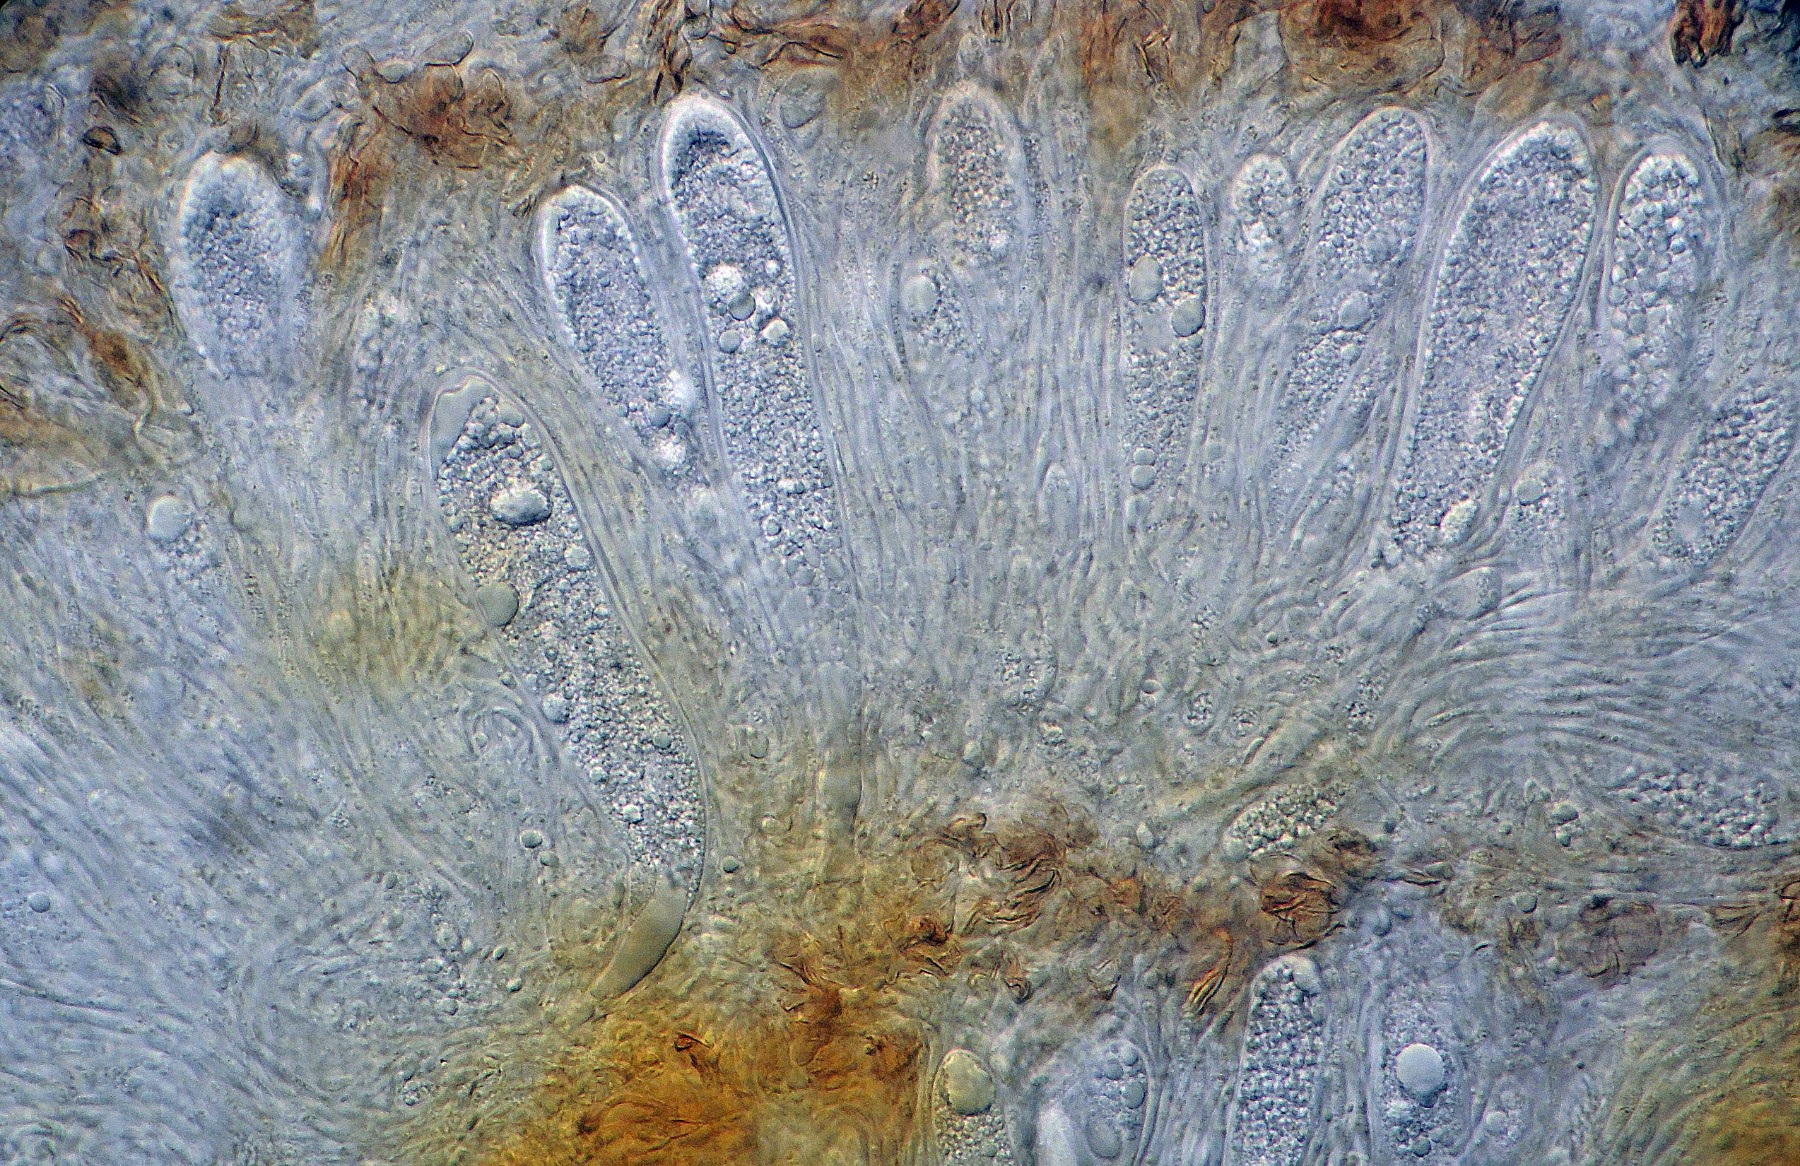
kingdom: Fungi
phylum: Ascomycota
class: Leotiomycetes
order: Helotiales
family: Dermateaceae
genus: Pezicula
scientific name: Pezicula rubi
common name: brombær-klyngeskive
